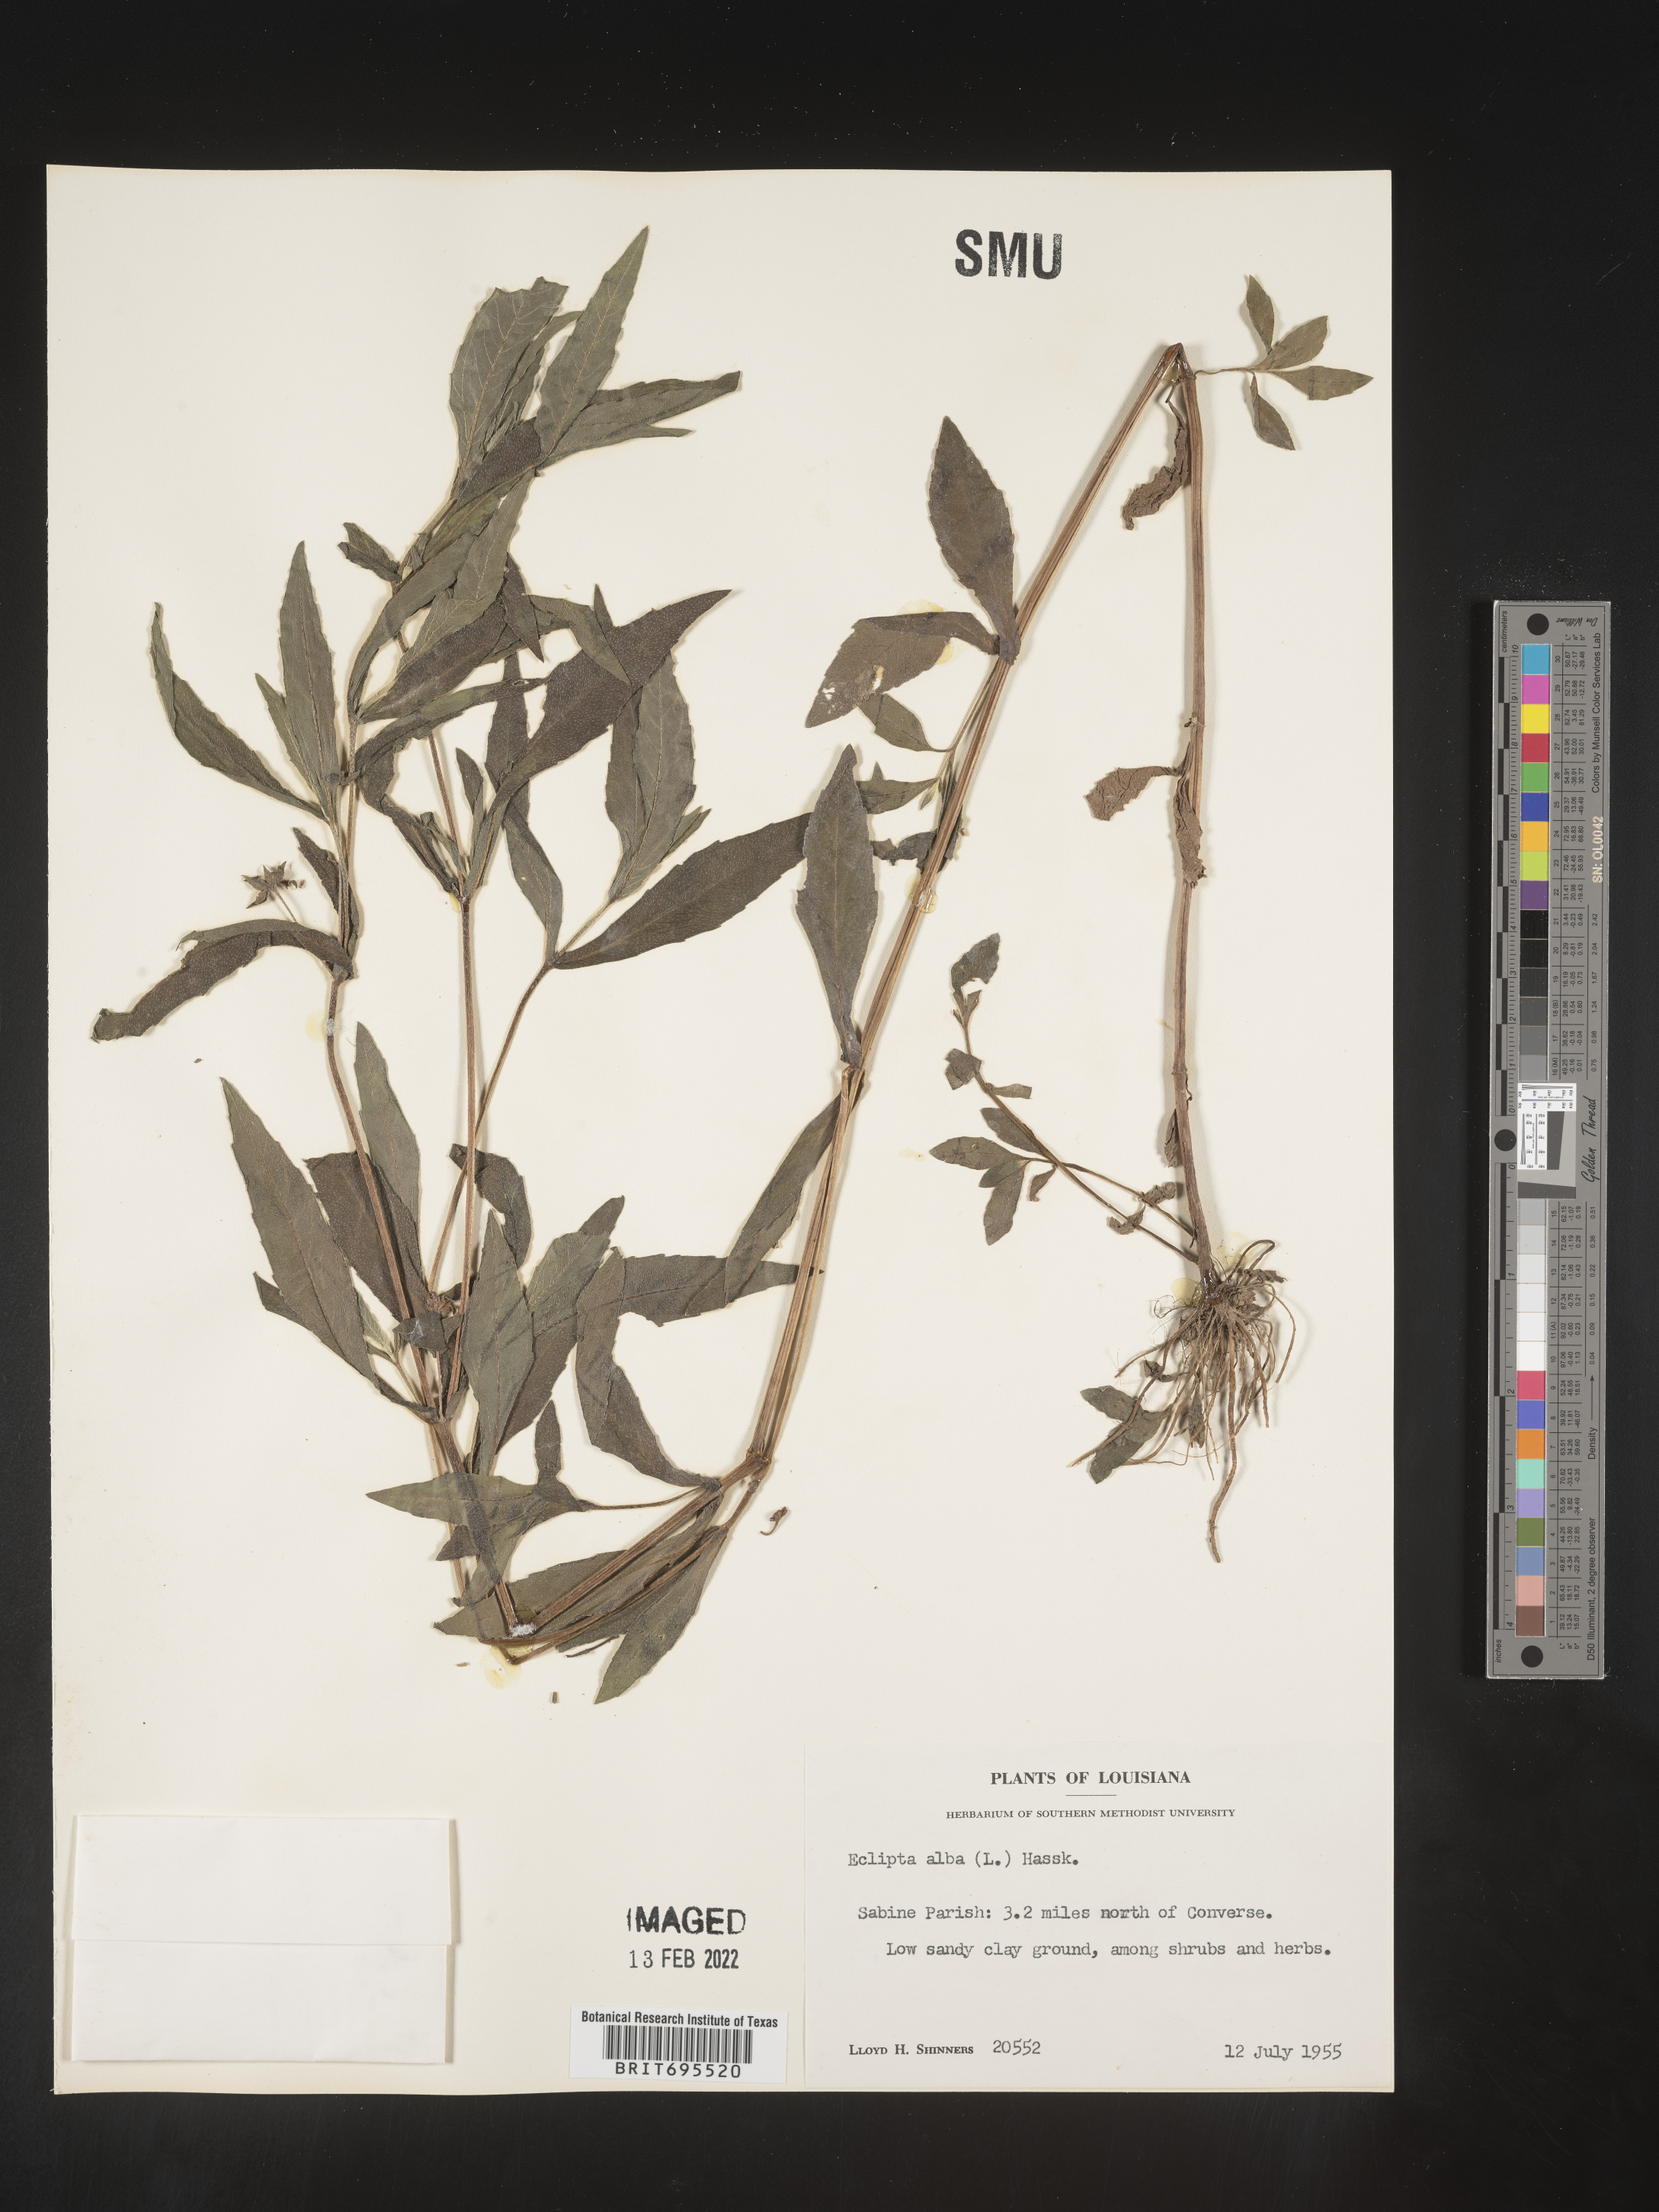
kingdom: Plantae
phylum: Tracheophyta
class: Magnoliopsida
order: Asterales
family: Asteraceae
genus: Eclipta
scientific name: Eclipta alba
